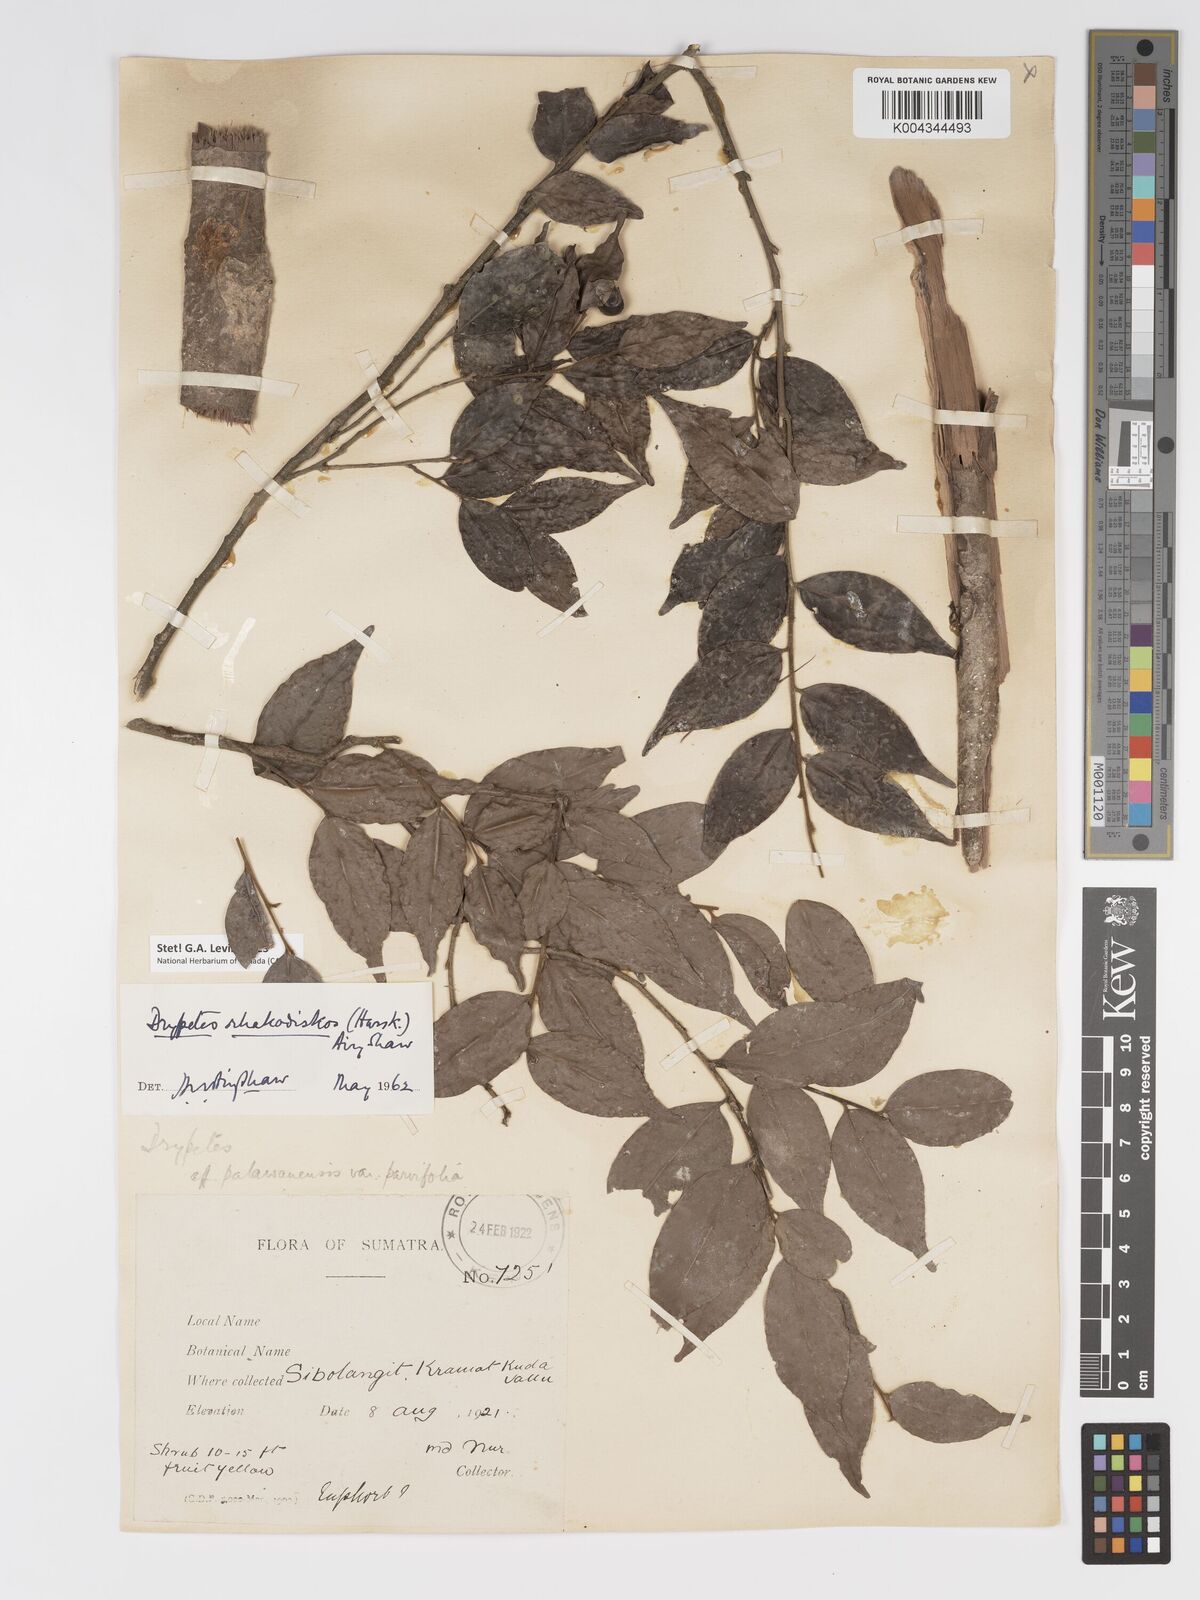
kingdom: Plantae
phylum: Tracheophyta
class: Magnoliopsida
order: Malpighiales
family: Putranjivaceae
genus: Drypetes
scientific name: Drypetes rhakodiskos
